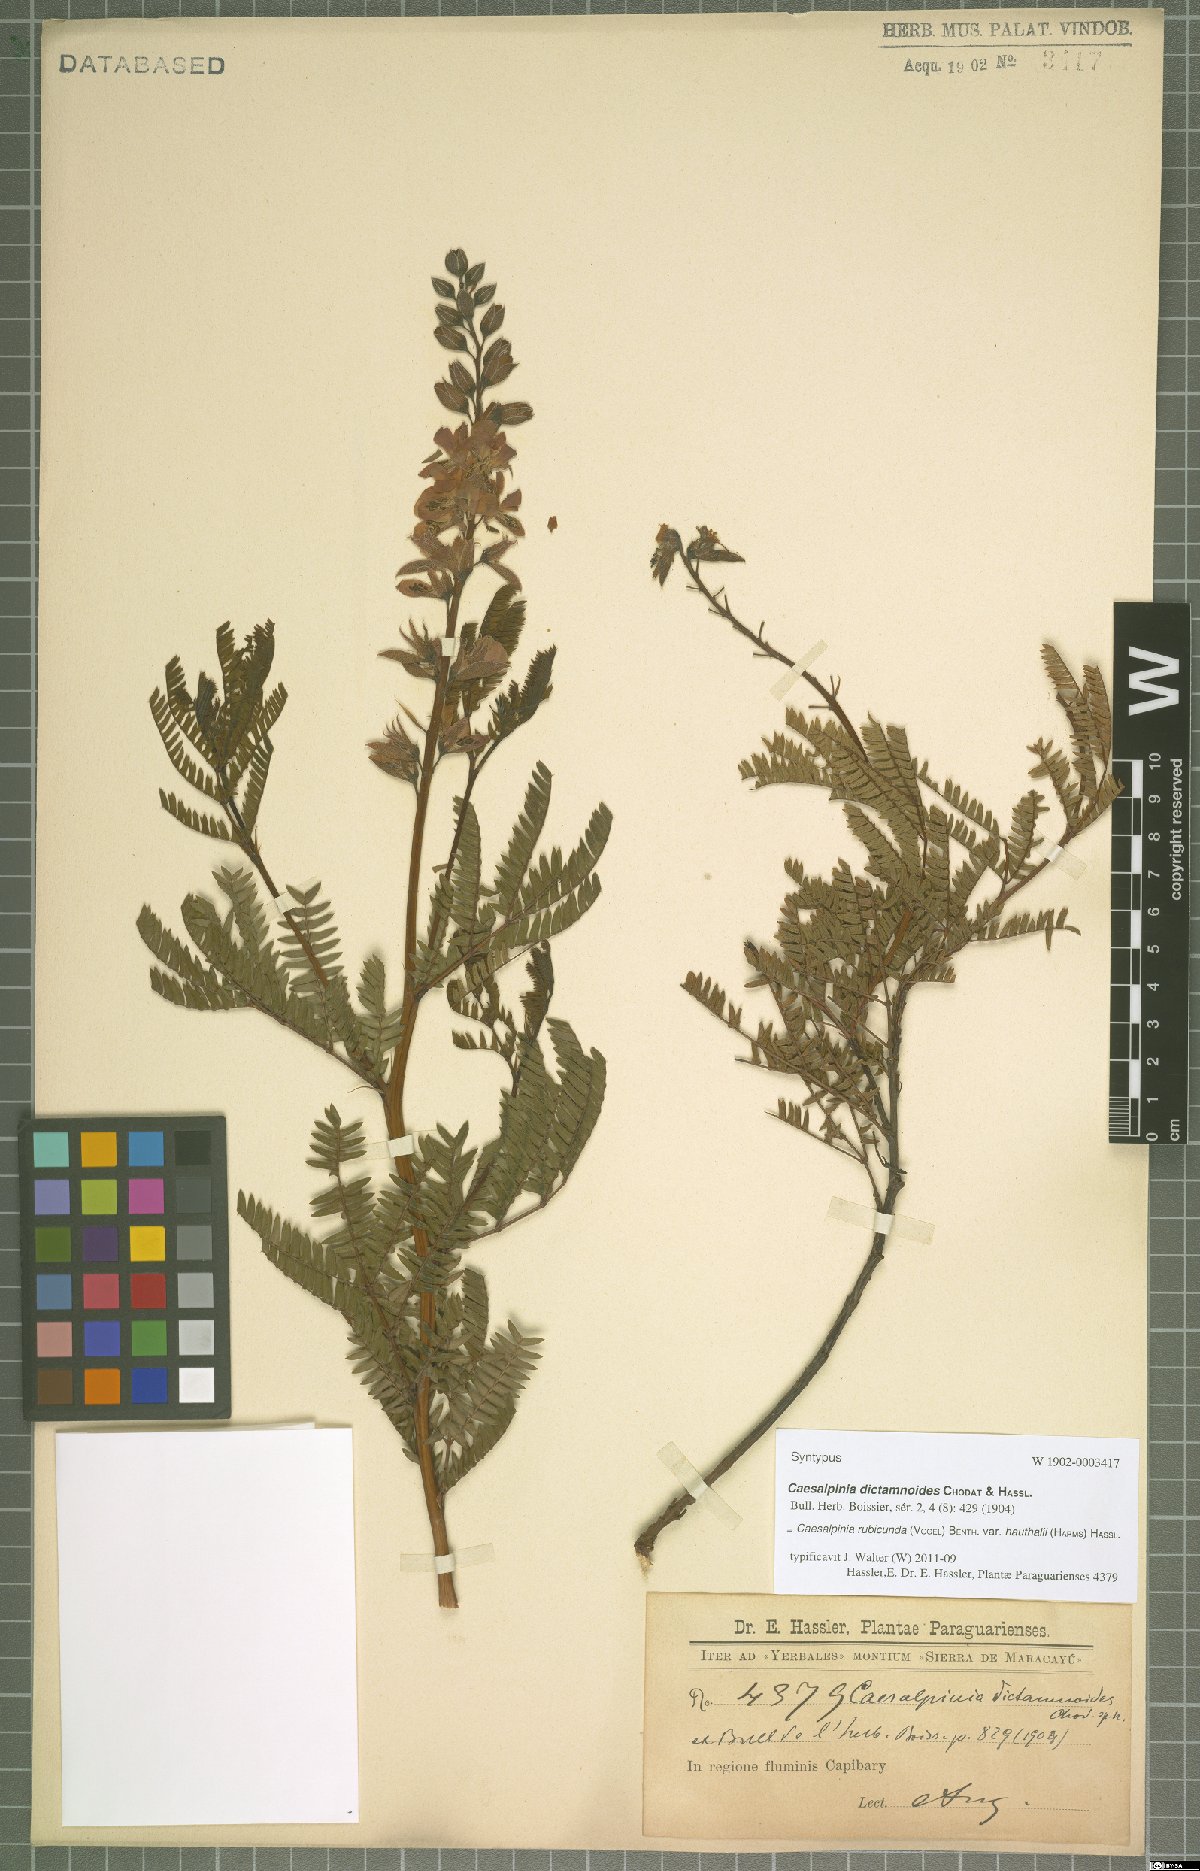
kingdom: Plantae
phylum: Tracheophyta
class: Magnoliopsida
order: Fabales
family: Fabaceae
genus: Pomaria
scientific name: Pomaria rubicunda
